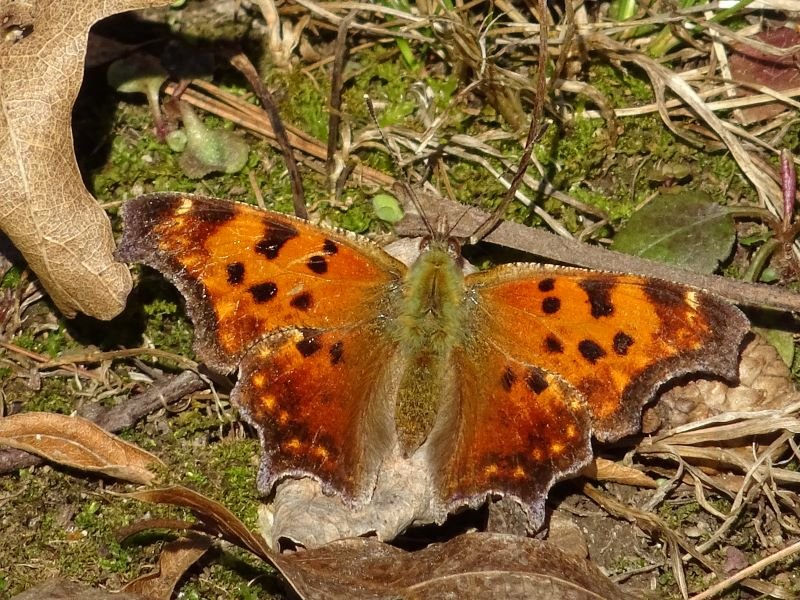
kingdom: Animalia
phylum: Arthropoda
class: Insecta
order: Lepidoptera
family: Nymphalidae
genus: Polygonia
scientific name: Polygonia comma
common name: Eastern Comma
